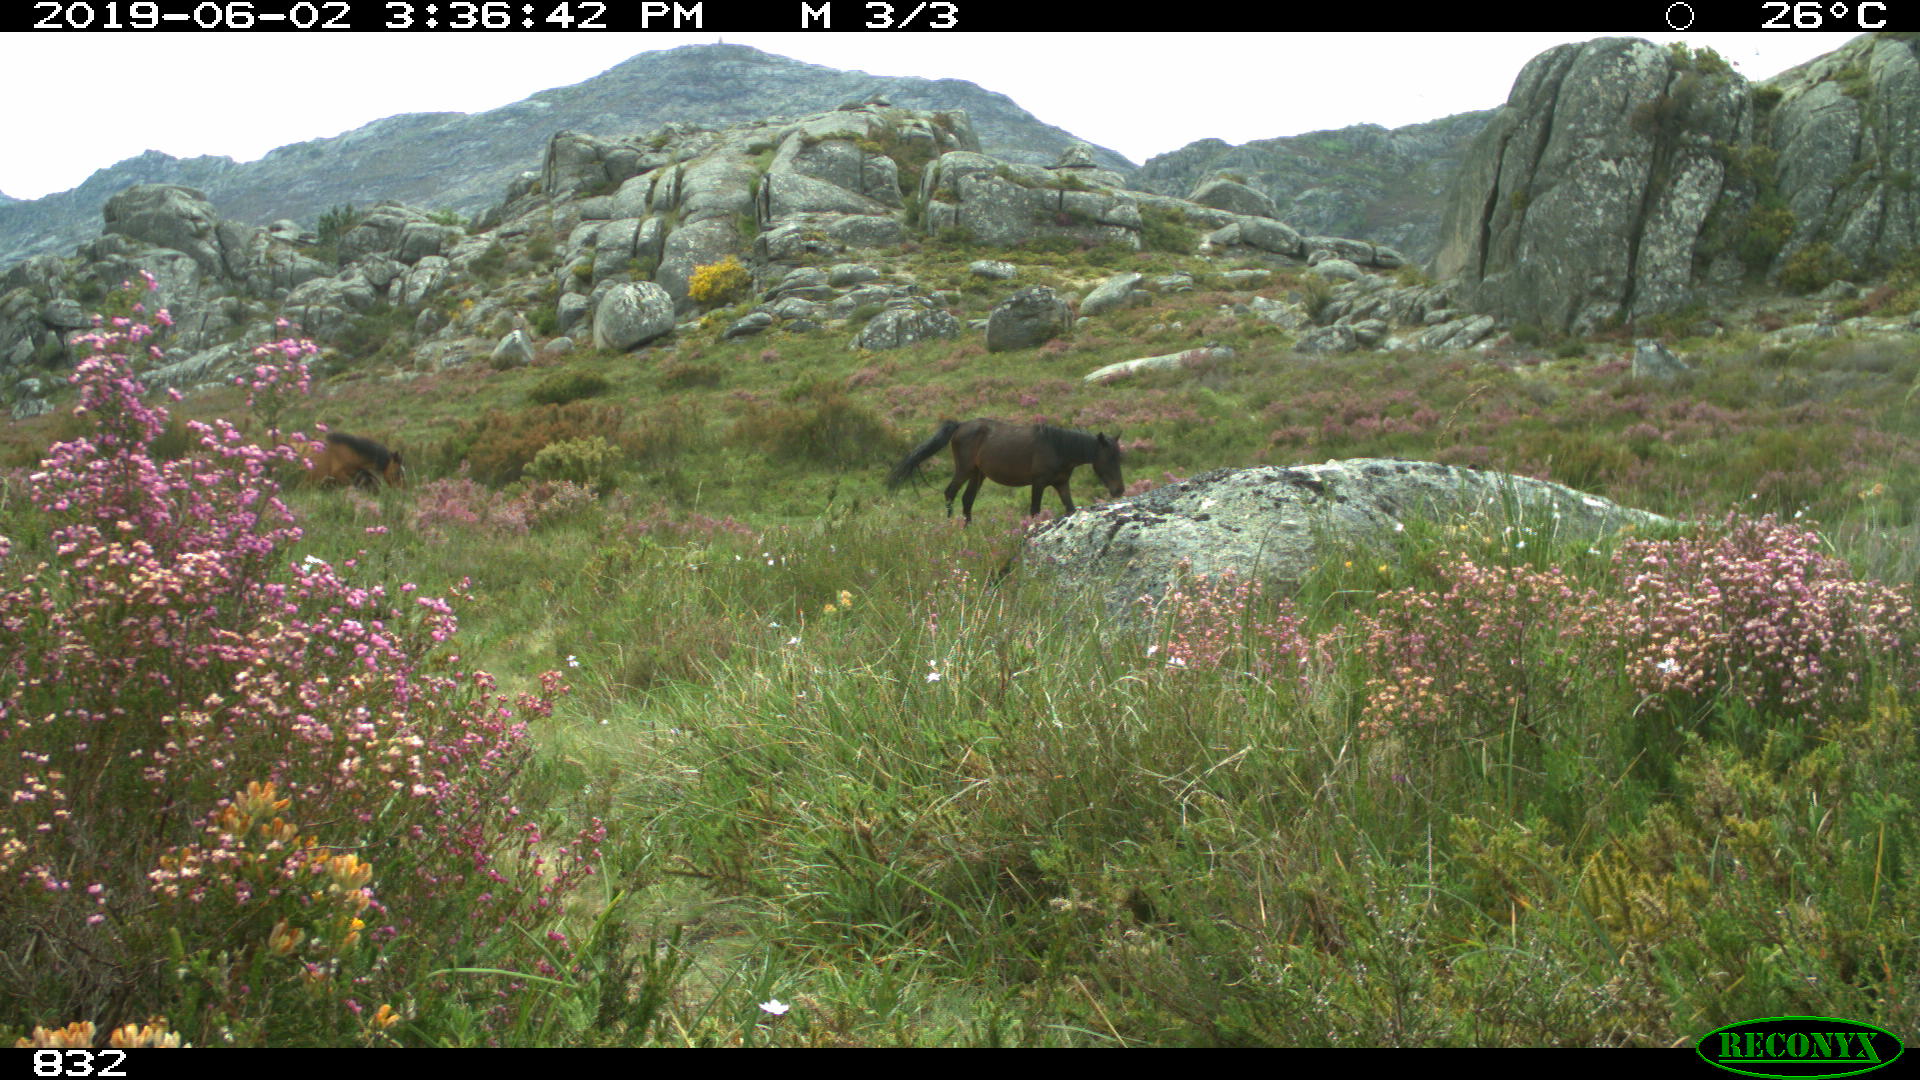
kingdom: Animalia
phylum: Chordata
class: Mammalia
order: Perissodactyla
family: Equidae
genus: Equus
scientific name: Equus caballus
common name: Horse
